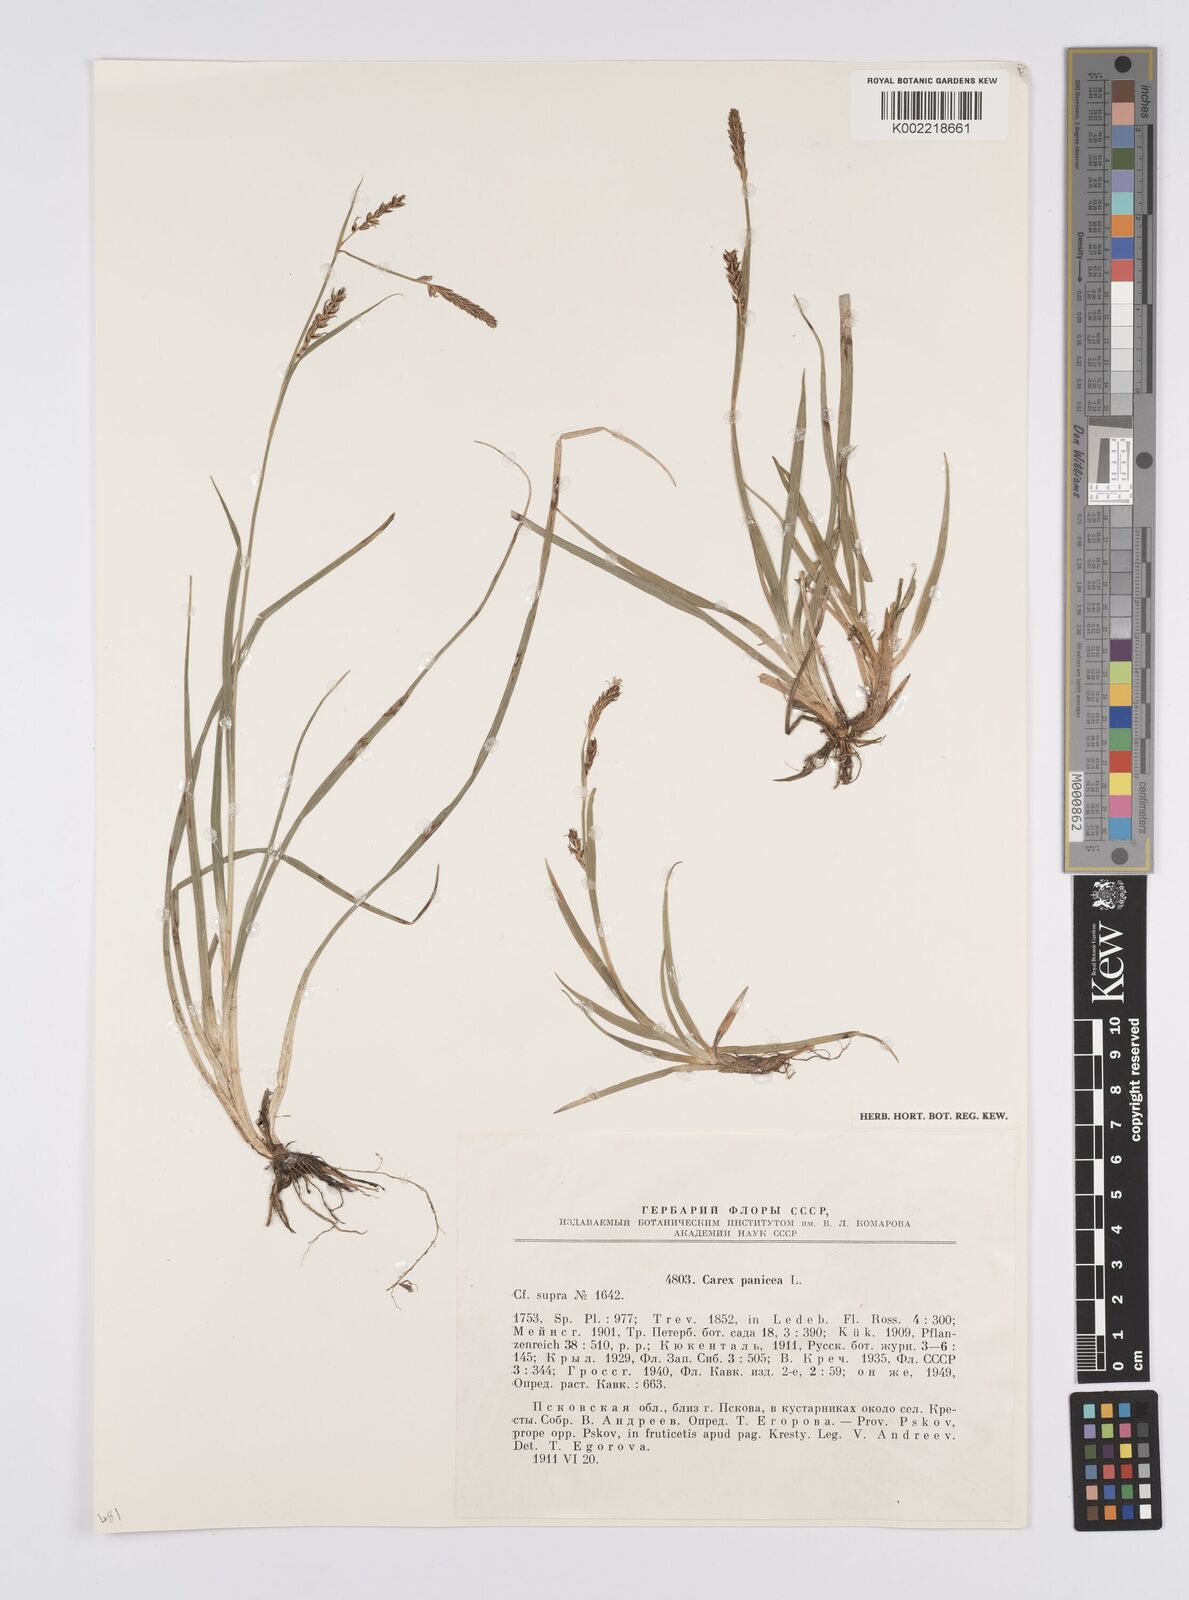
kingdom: Plantae
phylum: Tracheophyta
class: Liliopsida
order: Poales
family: Cyperaceae
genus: Carex
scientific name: Carex panicea
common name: Carnation sedge
